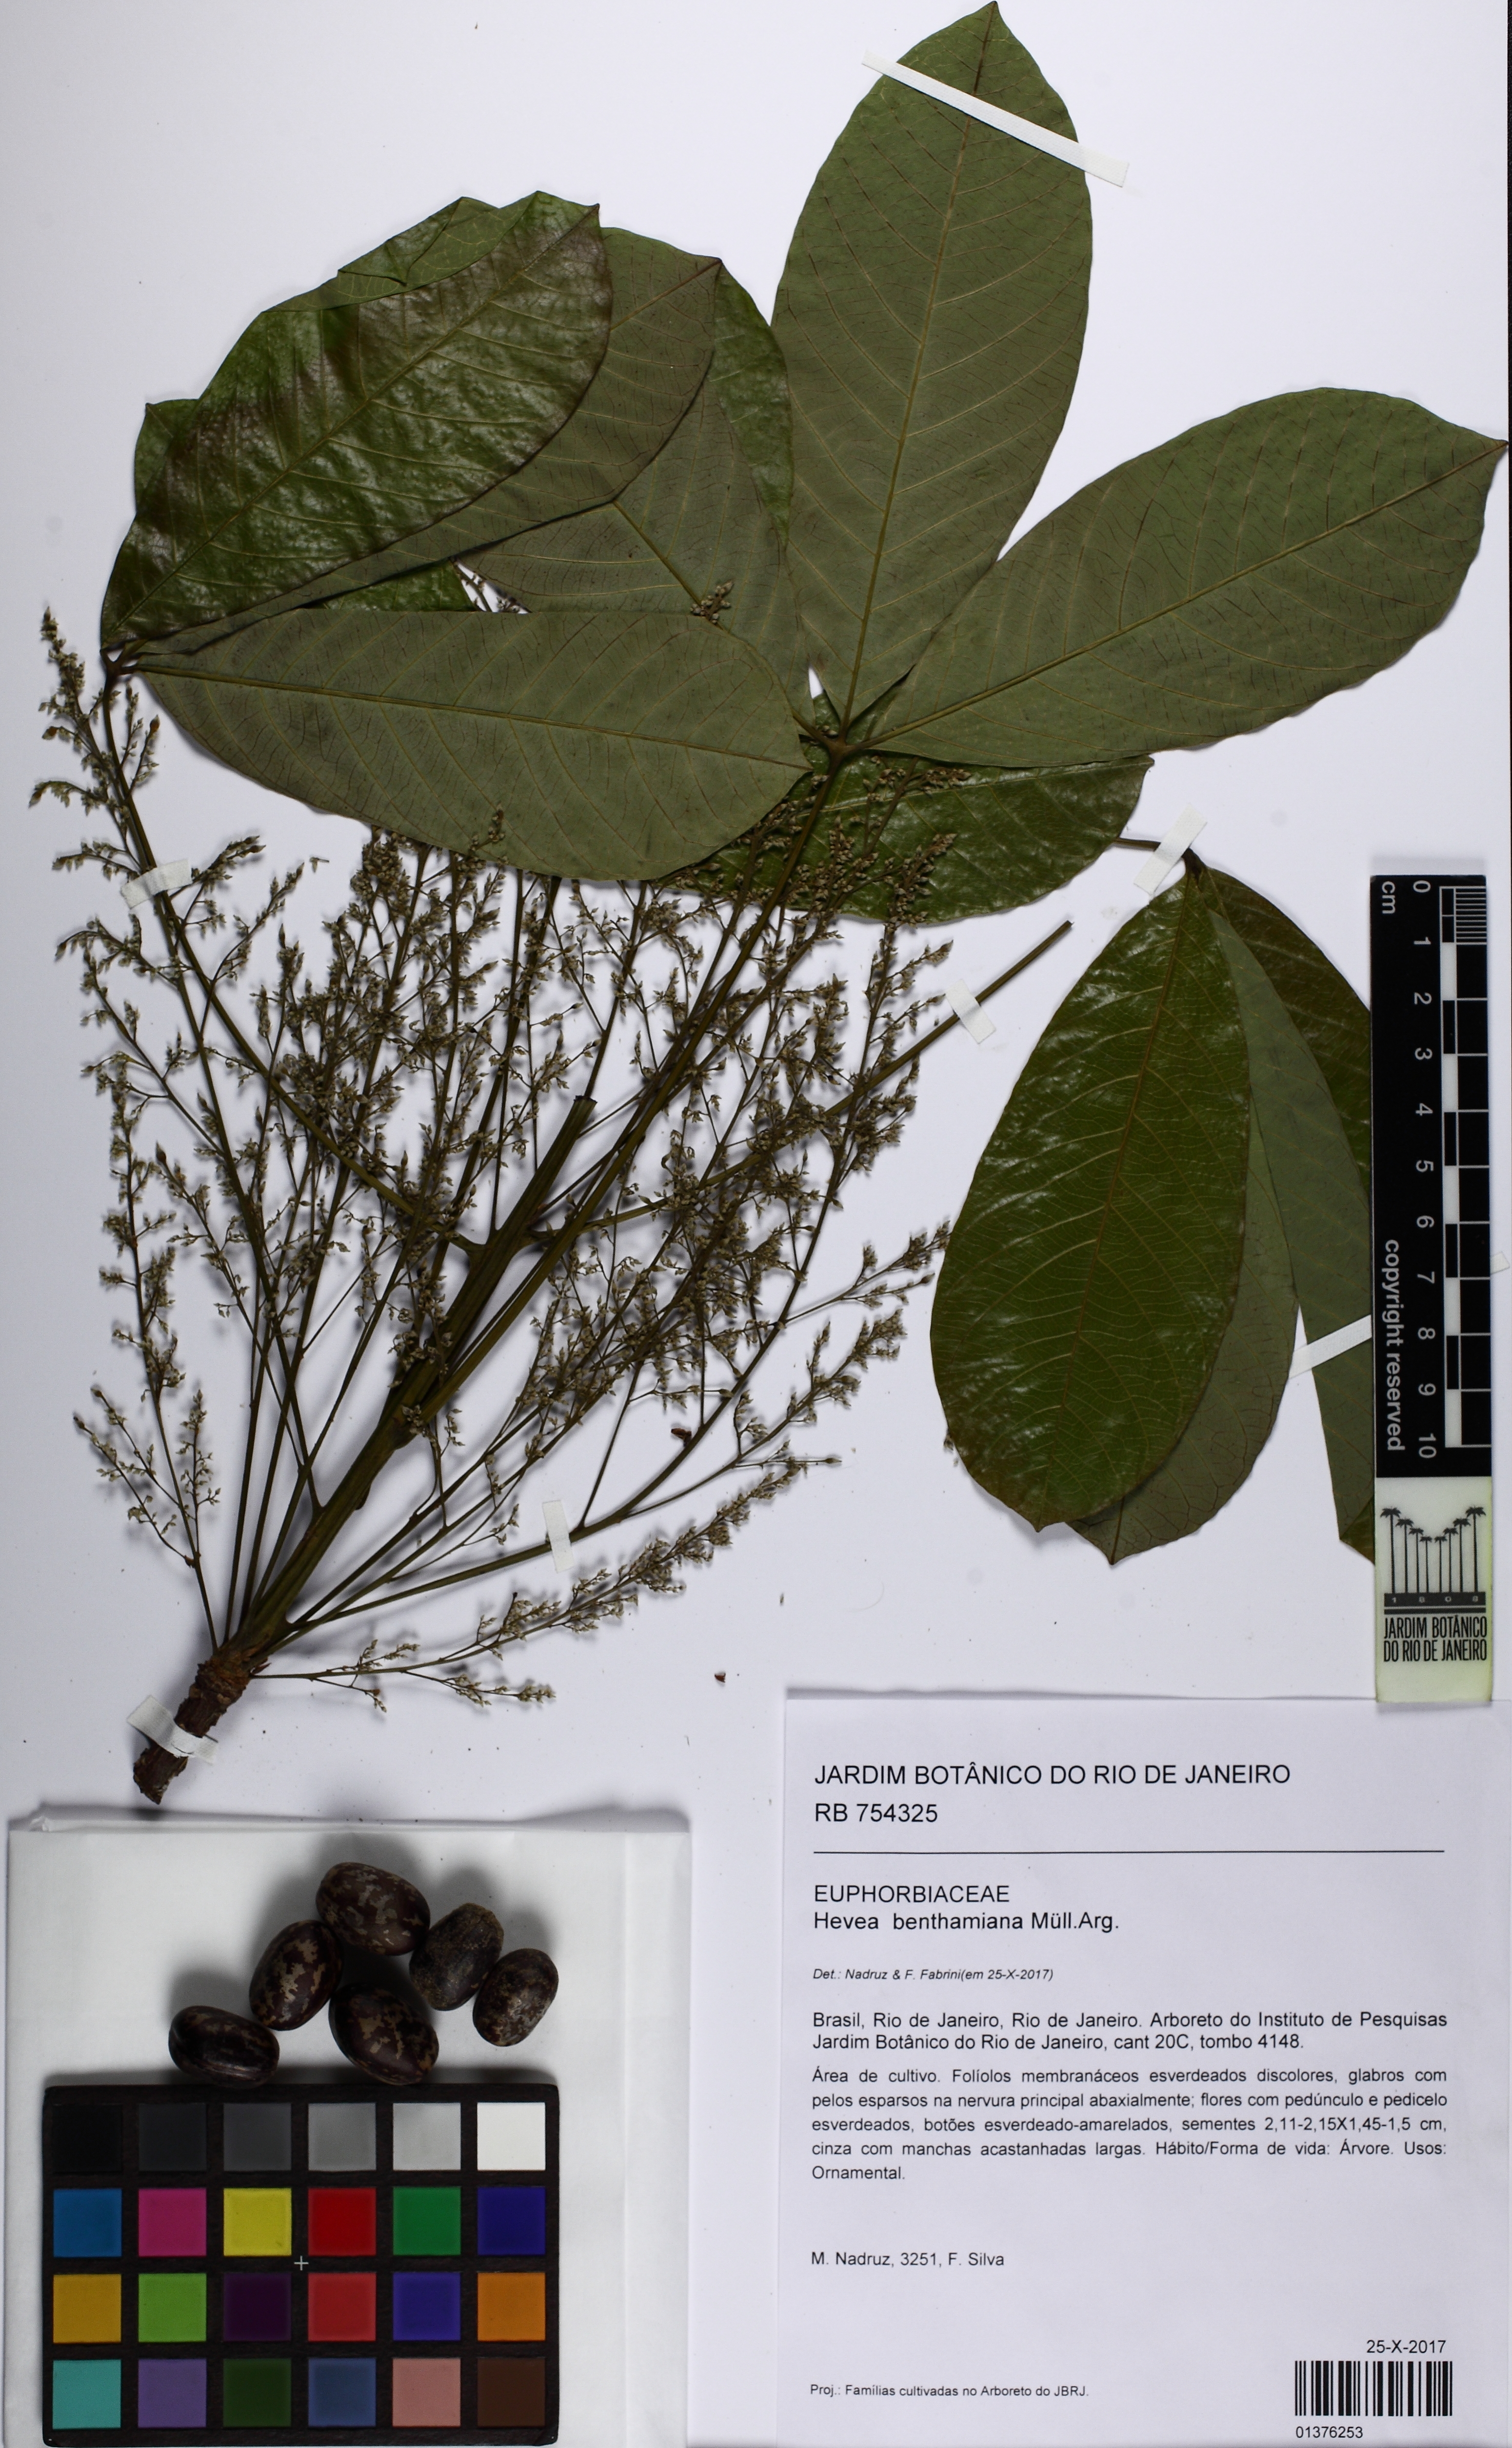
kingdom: Plantae
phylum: Tracheophyta
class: Magnoliopsida
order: Malpighiales
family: Euphorbiaceae
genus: Hevea
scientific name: Hevea benthamiana
